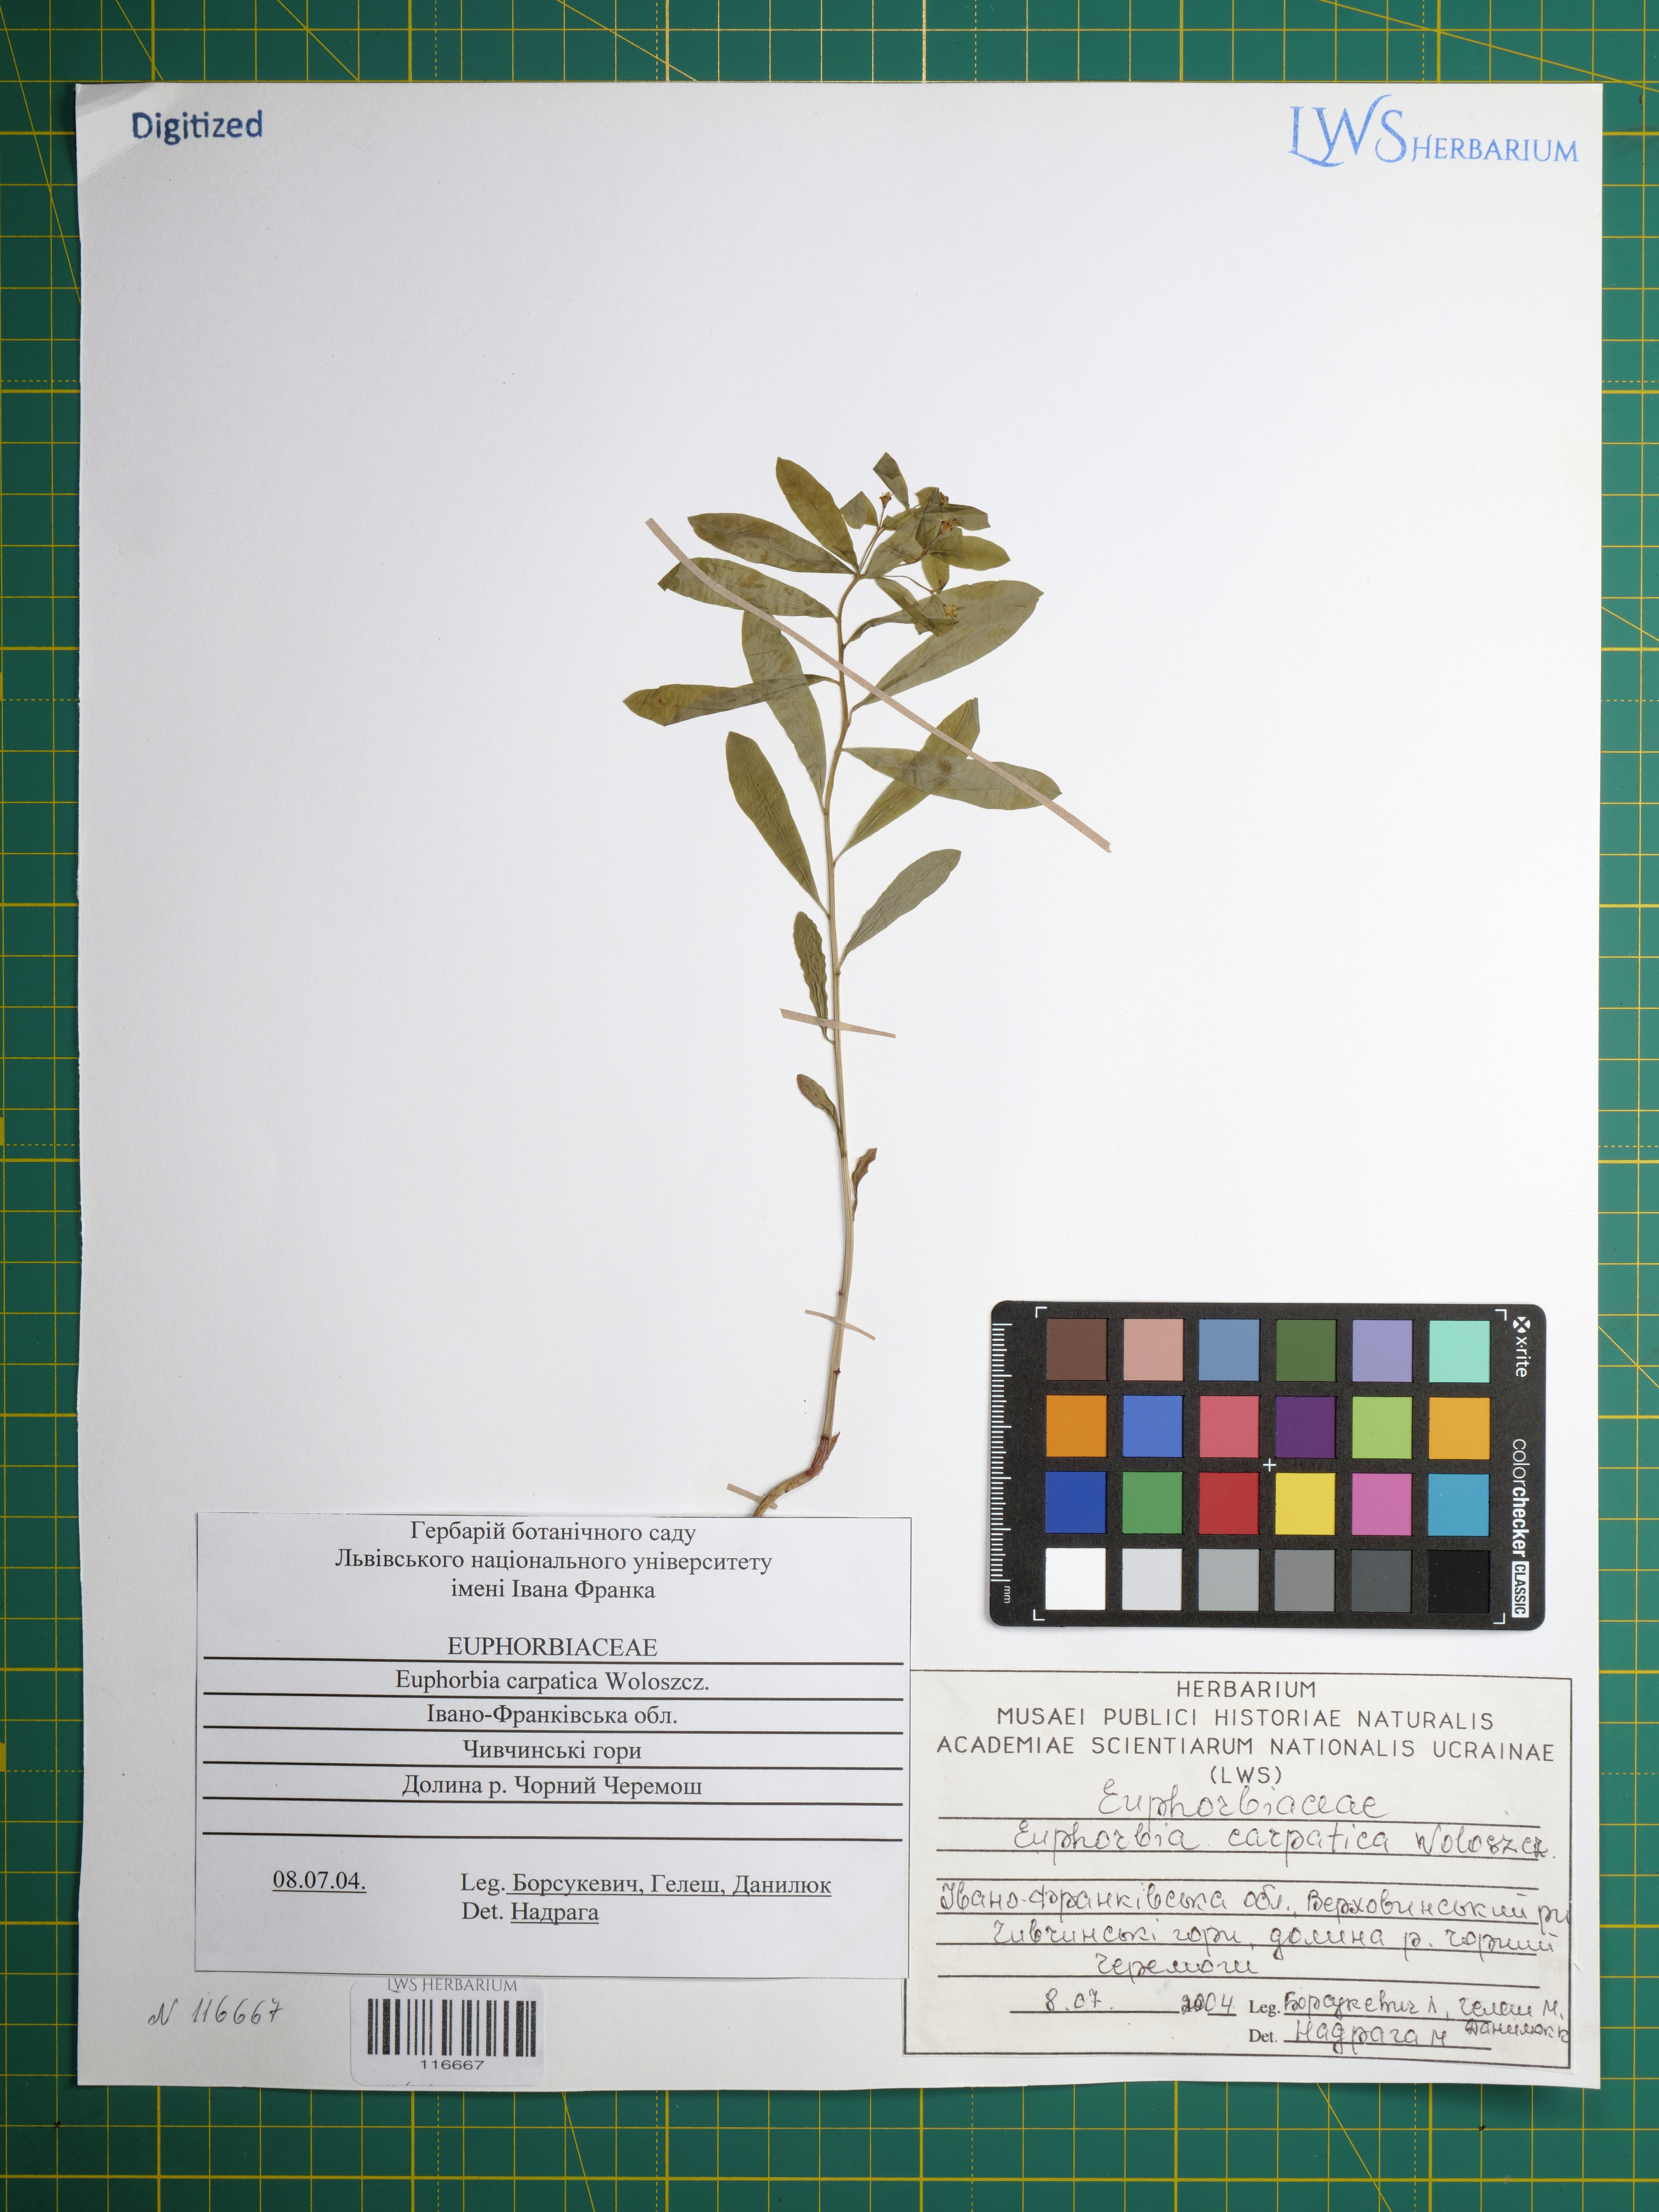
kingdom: Plantae
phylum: Tracheophyta
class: Magnoliopsida
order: Malpighiales
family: Euphorbiaceae
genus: Euphorbia
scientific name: Euphorbia carpatica
